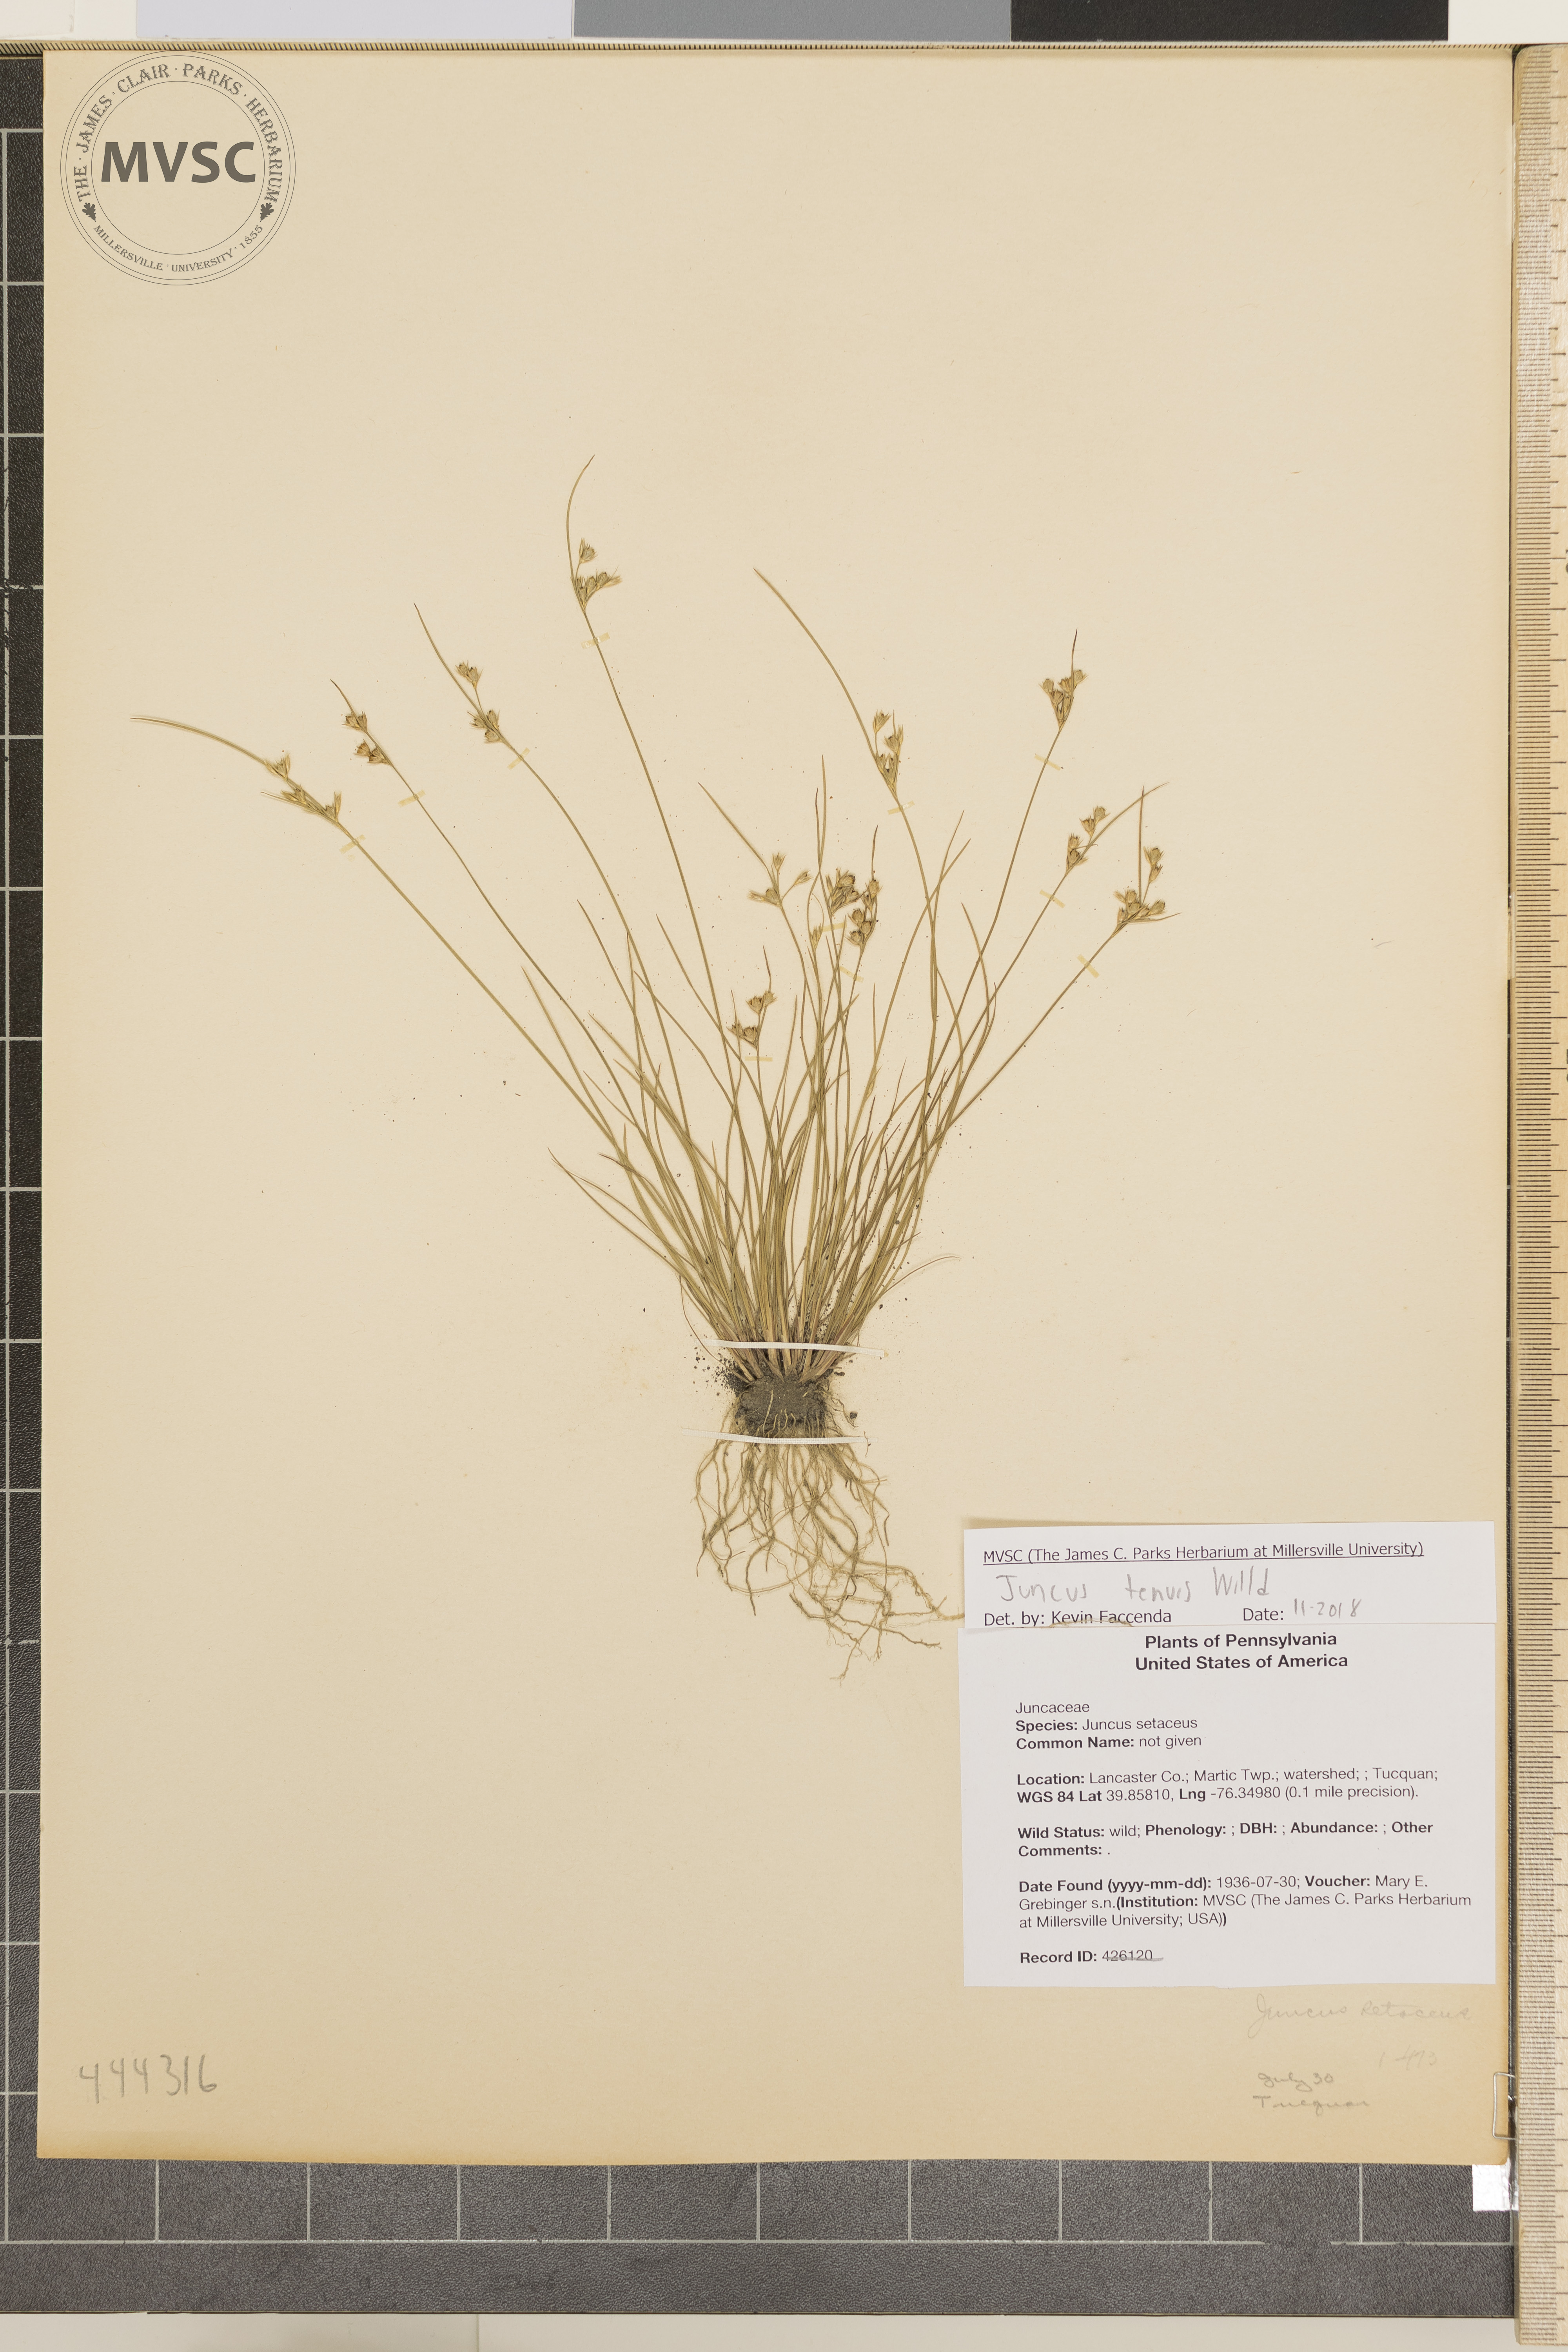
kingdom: Plantae
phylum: Tracheophyta
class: Liliopsida
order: Poales
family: Juncaceae
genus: Juncus
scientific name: Juncus tenuis
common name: Slender rush
